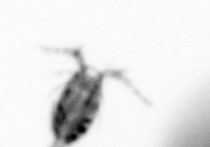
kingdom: Animalia
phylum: Arthropoda
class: Copepoda
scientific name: Copepoda
